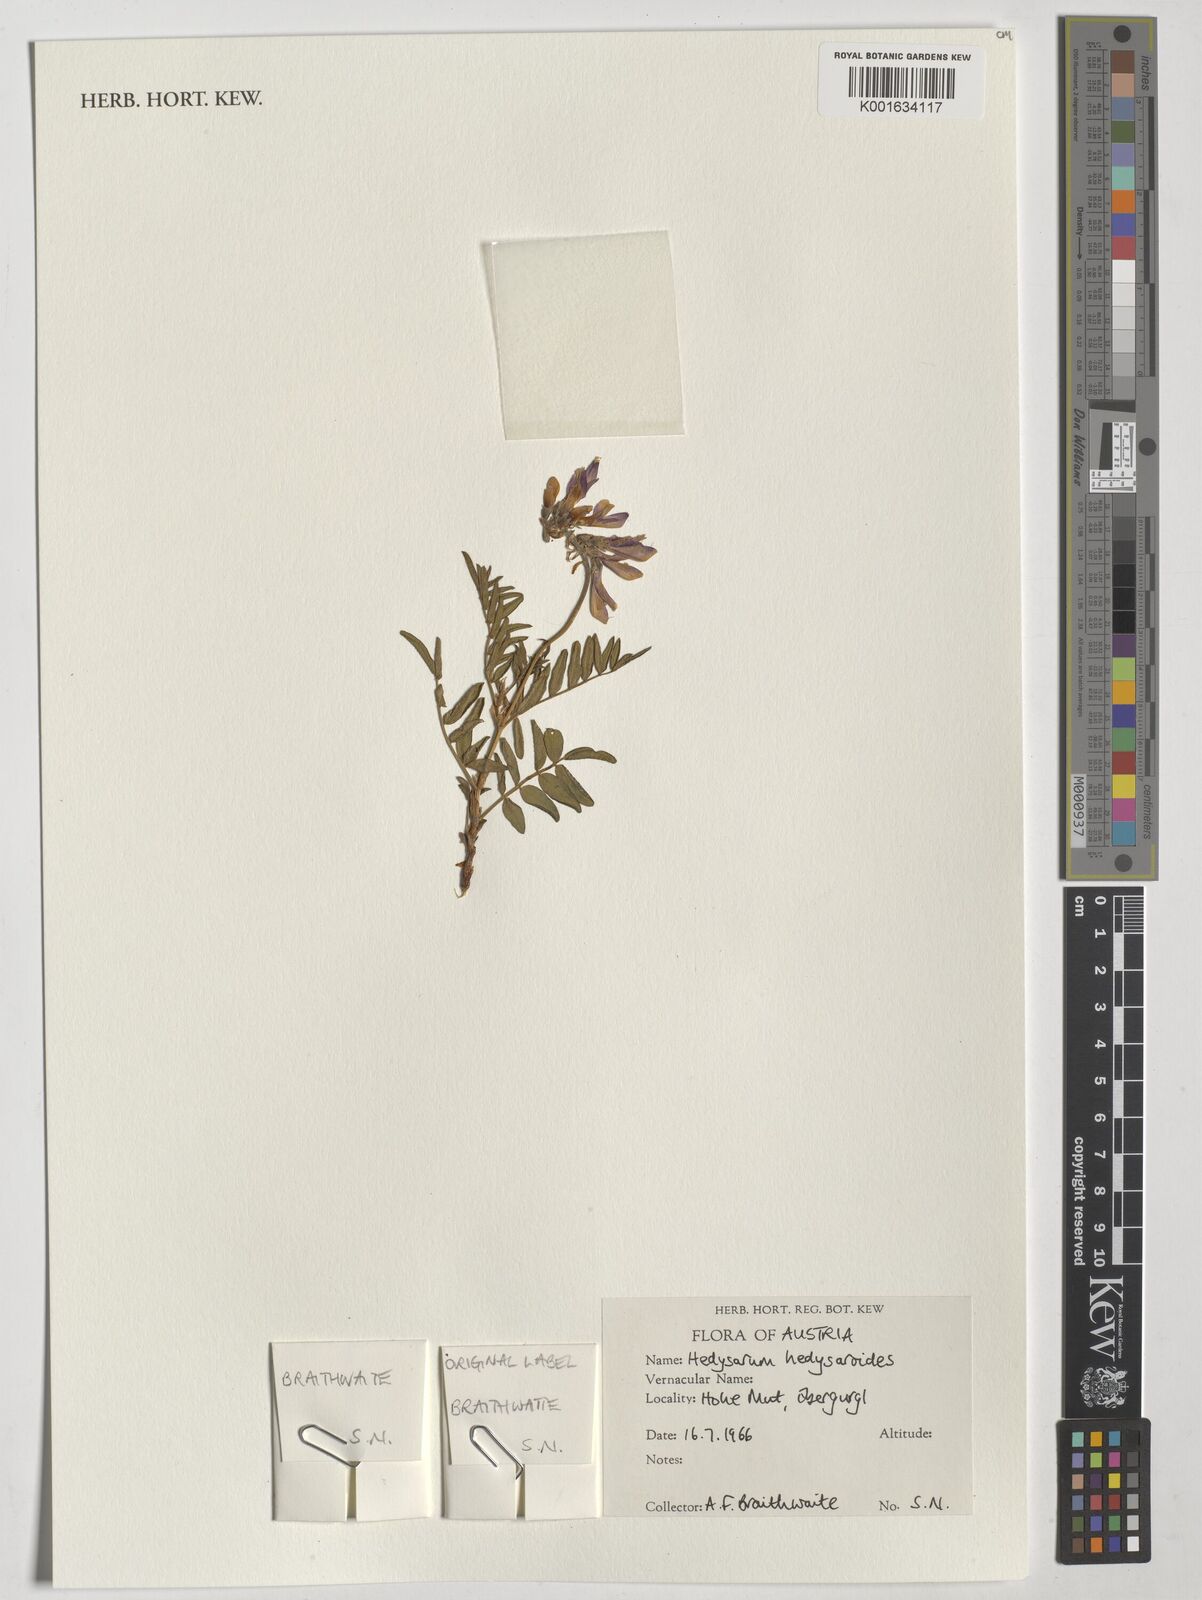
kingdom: Plantae
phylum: Tracheophyta
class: Magnoliopsida
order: Fabales
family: Fabaceae
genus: Hedysarum
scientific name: Hedysarum hedysaroides
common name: Alpine french-honeysuckle
